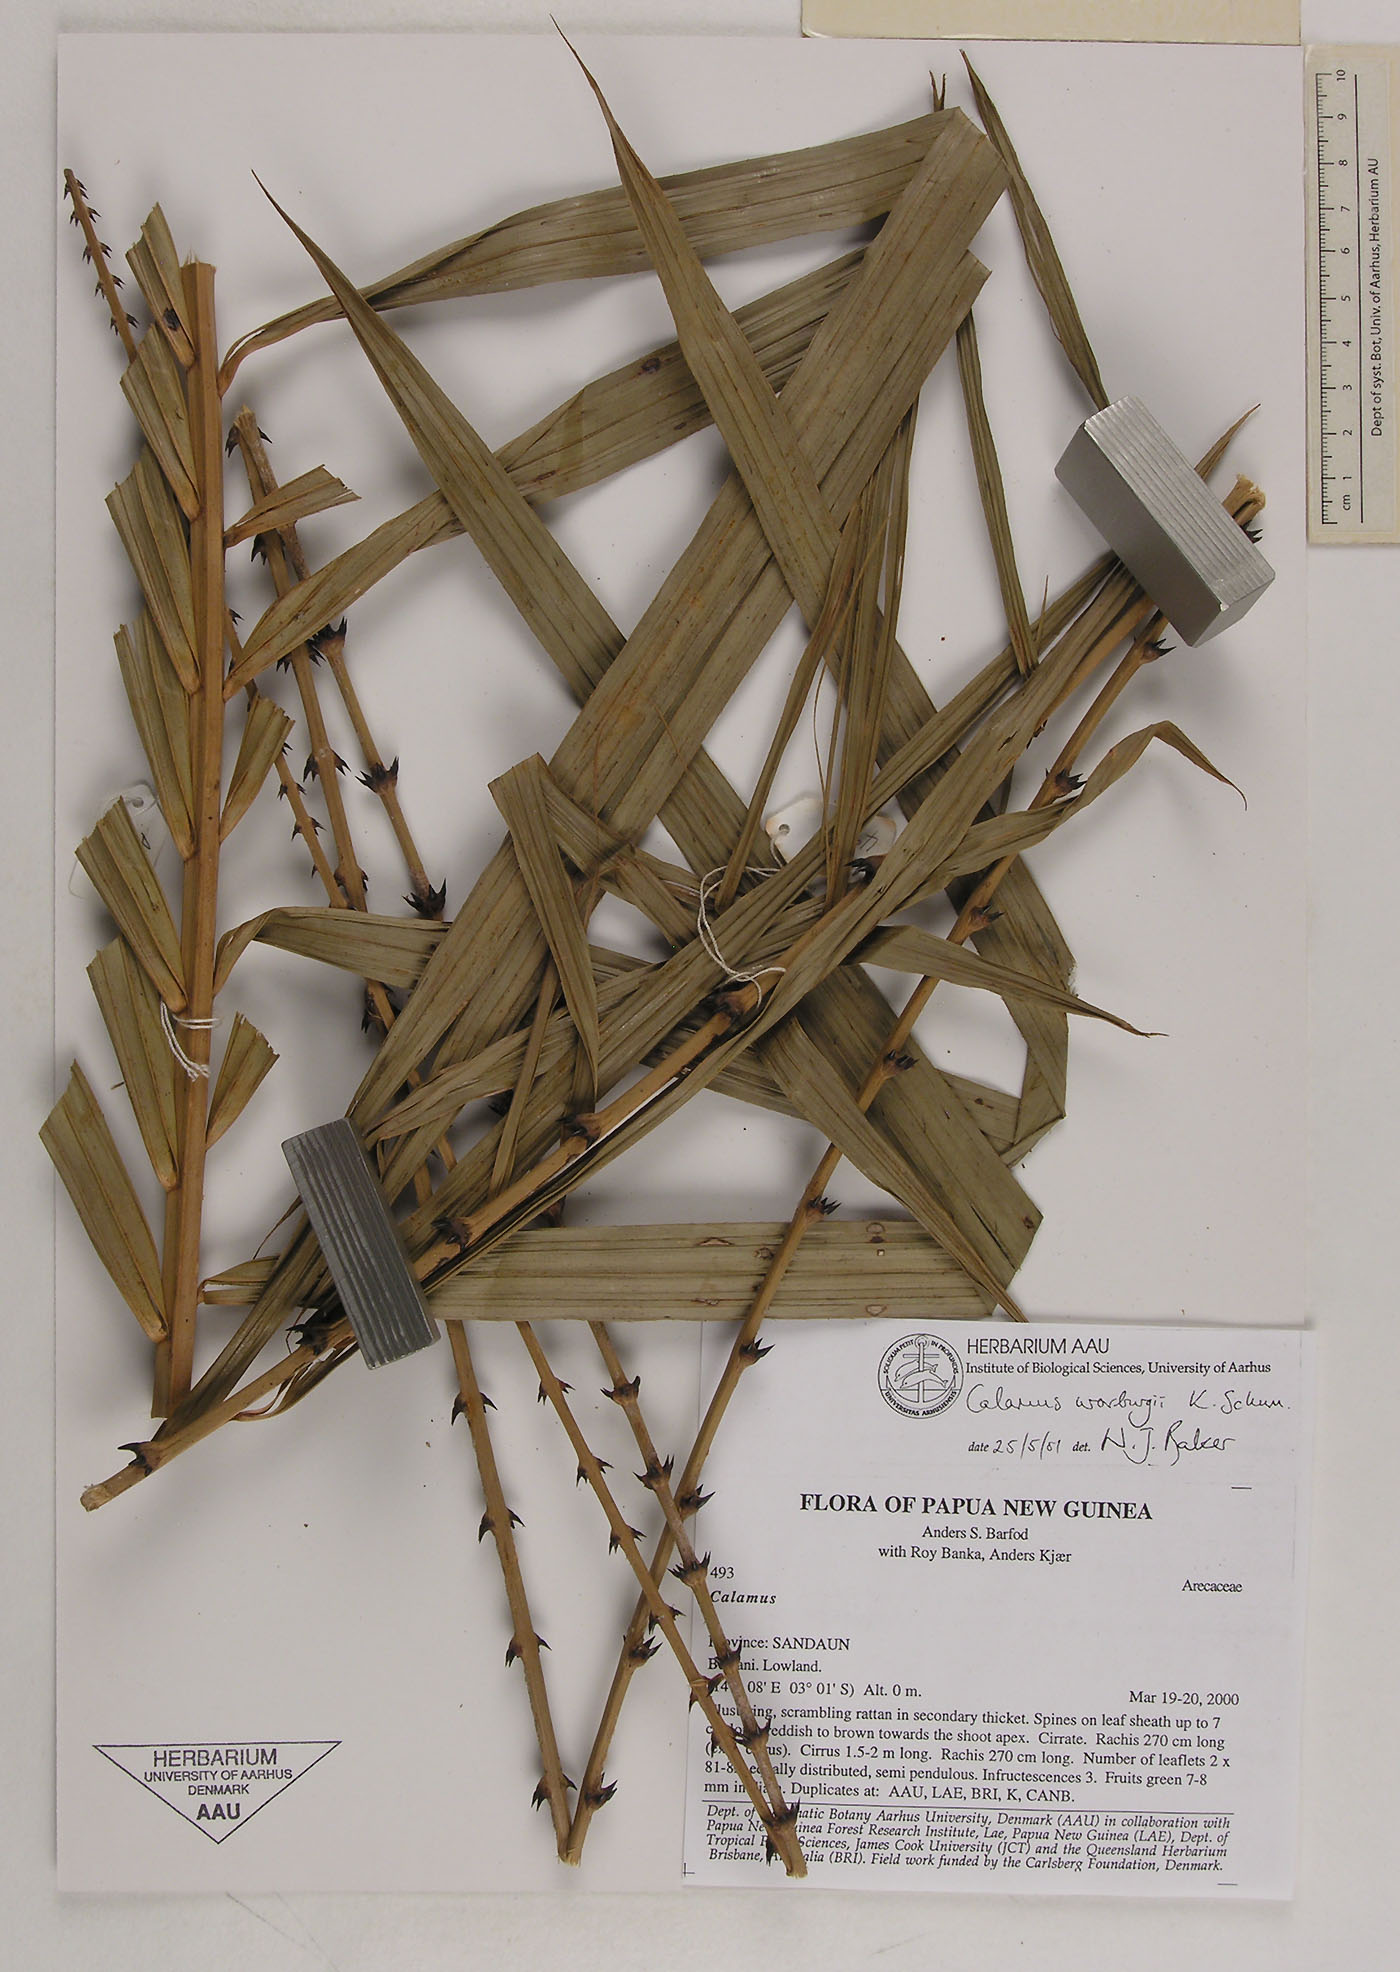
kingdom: Plantae
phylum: Tracheophyta
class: Liliopsida
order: Arecales
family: Arecaceae
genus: Calamus
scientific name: Calamus warburgii
